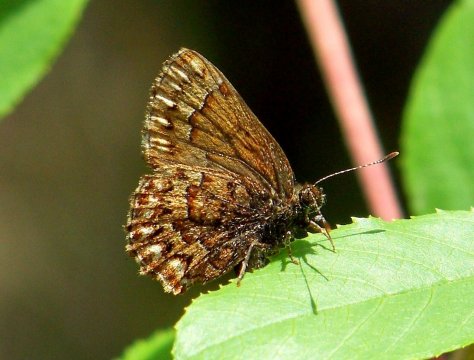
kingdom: Animalia
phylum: Arthropoda
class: Insecta
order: Lepidoptera
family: Lycaenidae
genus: Incisalia
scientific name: Incisalia eryphon
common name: Western Pine Elfin
